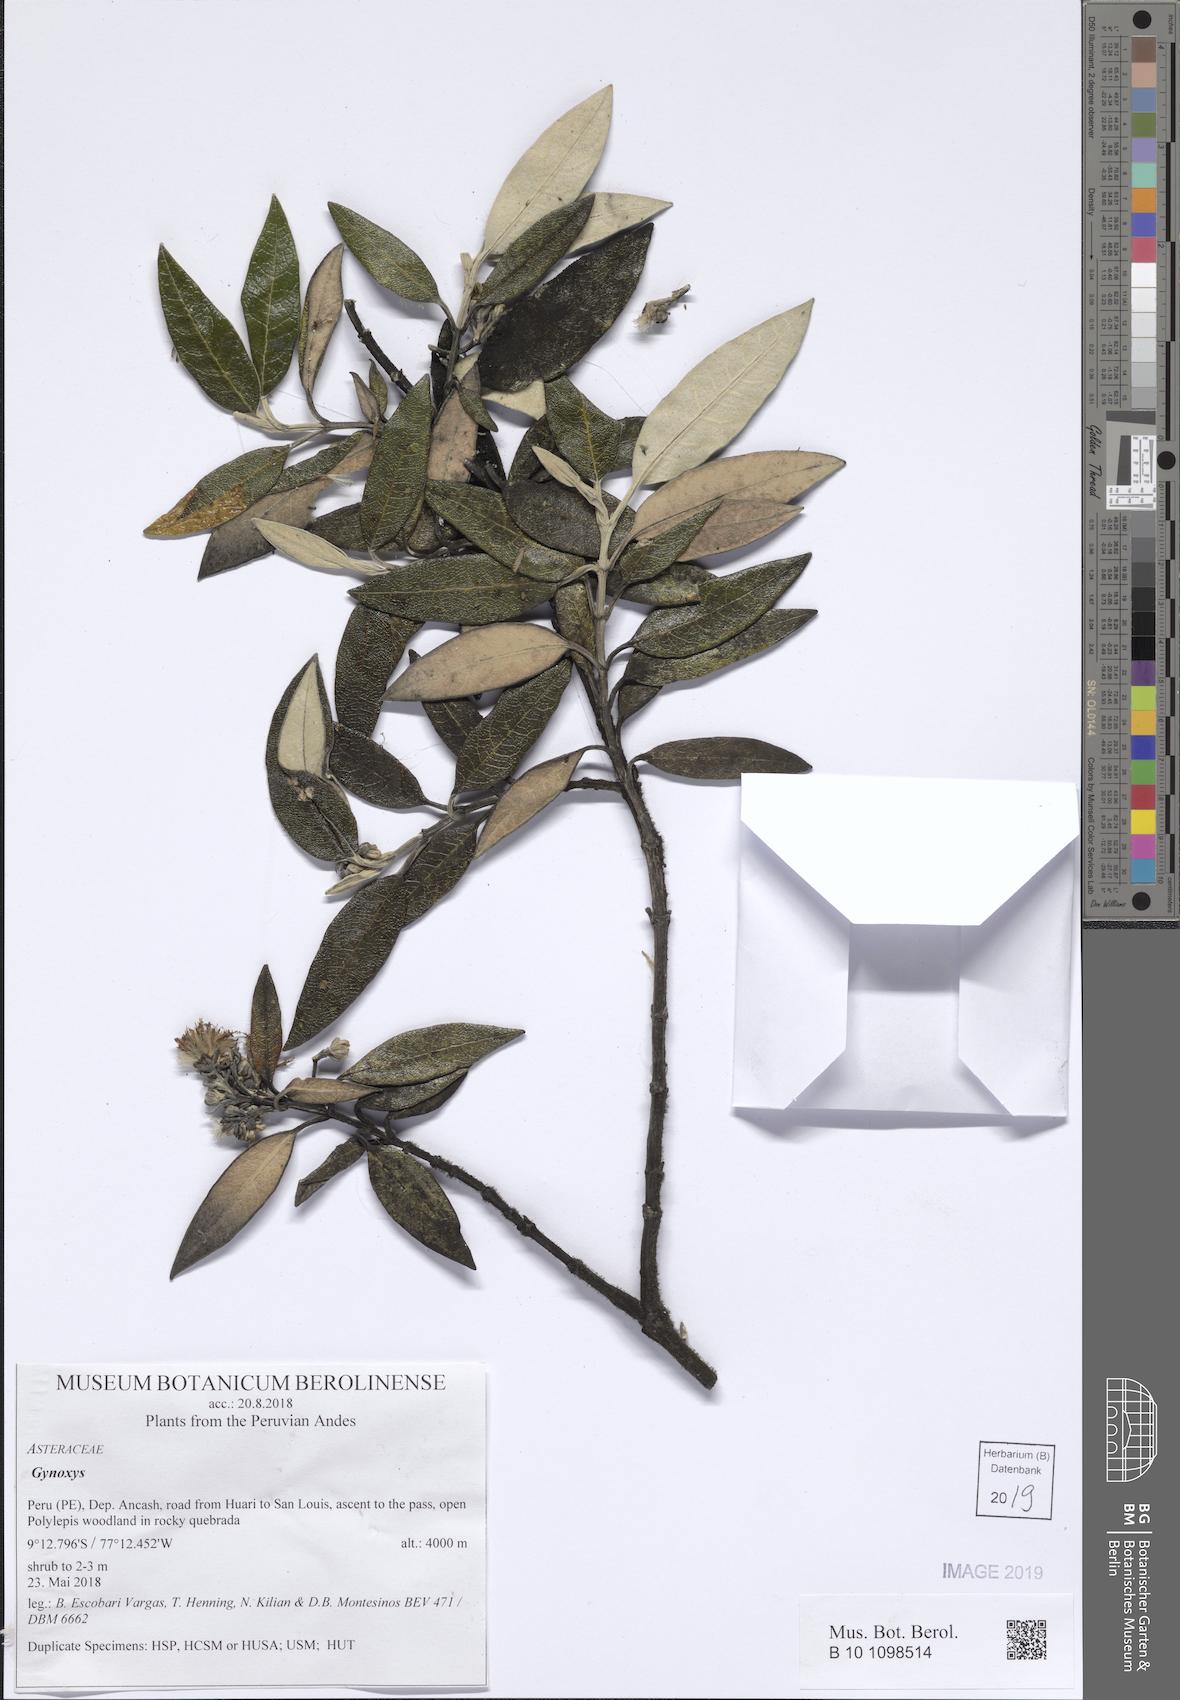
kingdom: Plantae
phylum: Tracheophyta
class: Magnoliopsida
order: Asterales
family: Asteraceae
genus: Gynoxys
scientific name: Gynoxys
